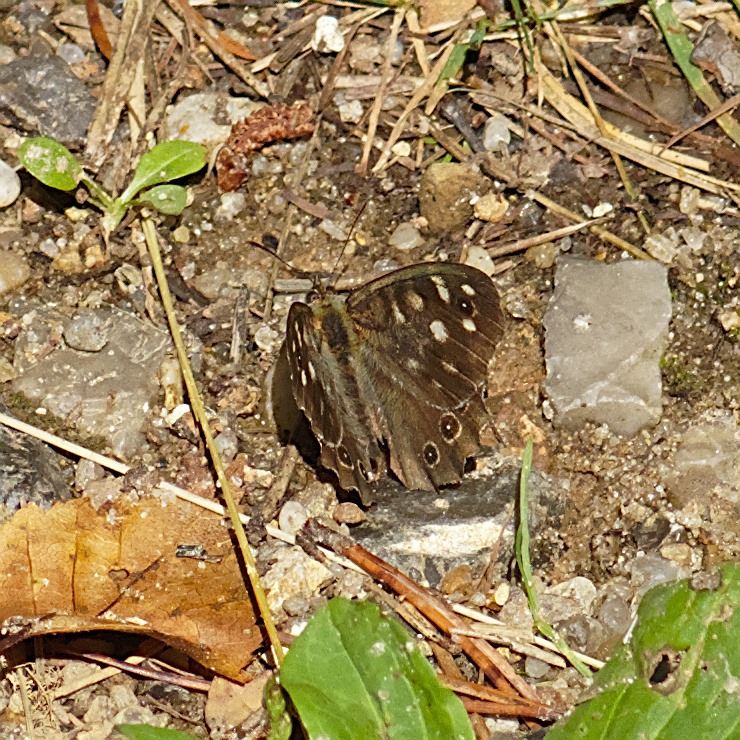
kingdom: Animalia
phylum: Arthropoda
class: Insecta
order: Lepidoptera
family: Nymphalidae
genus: Pararge
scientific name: Pararge aegeria
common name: Skovrandøje
